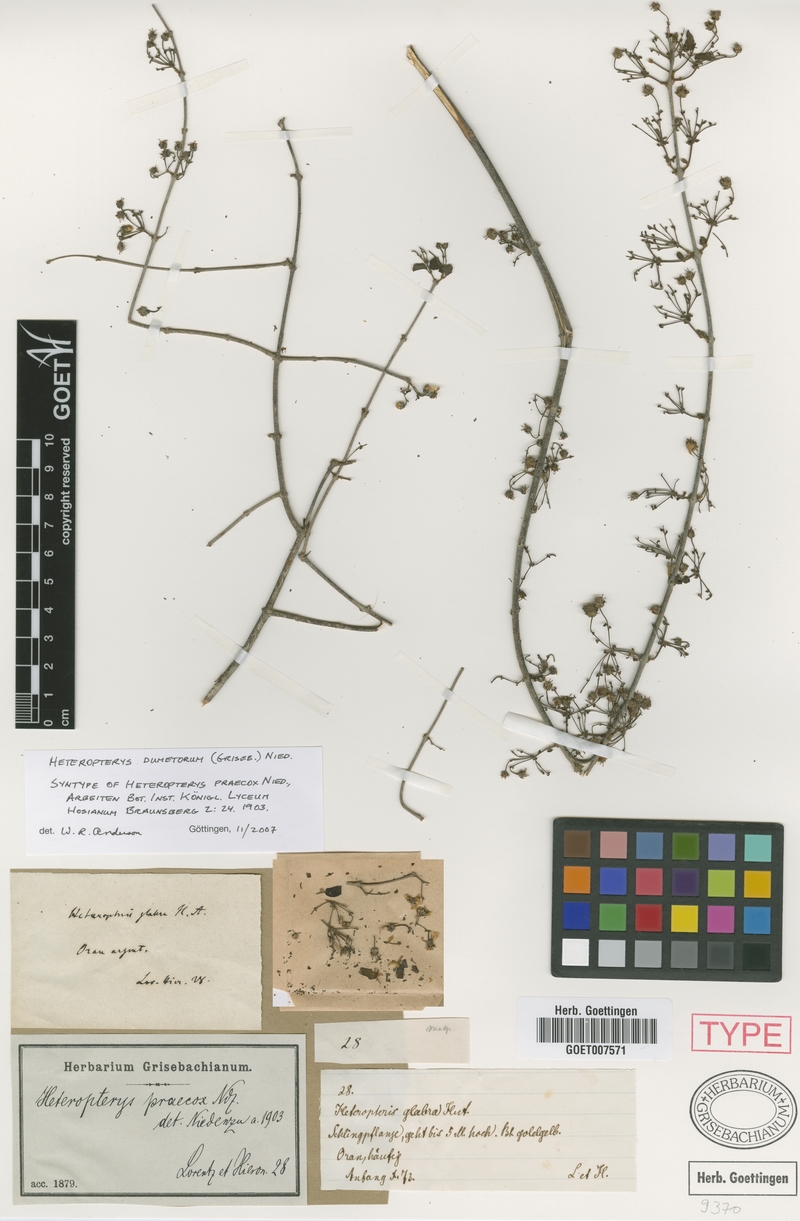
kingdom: Plantae
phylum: Tracheophyta
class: Magnoliopsida
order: Malpighiales
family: Malpighiaceae
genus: Heteropterys
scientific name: Heteropterys dumetorum
